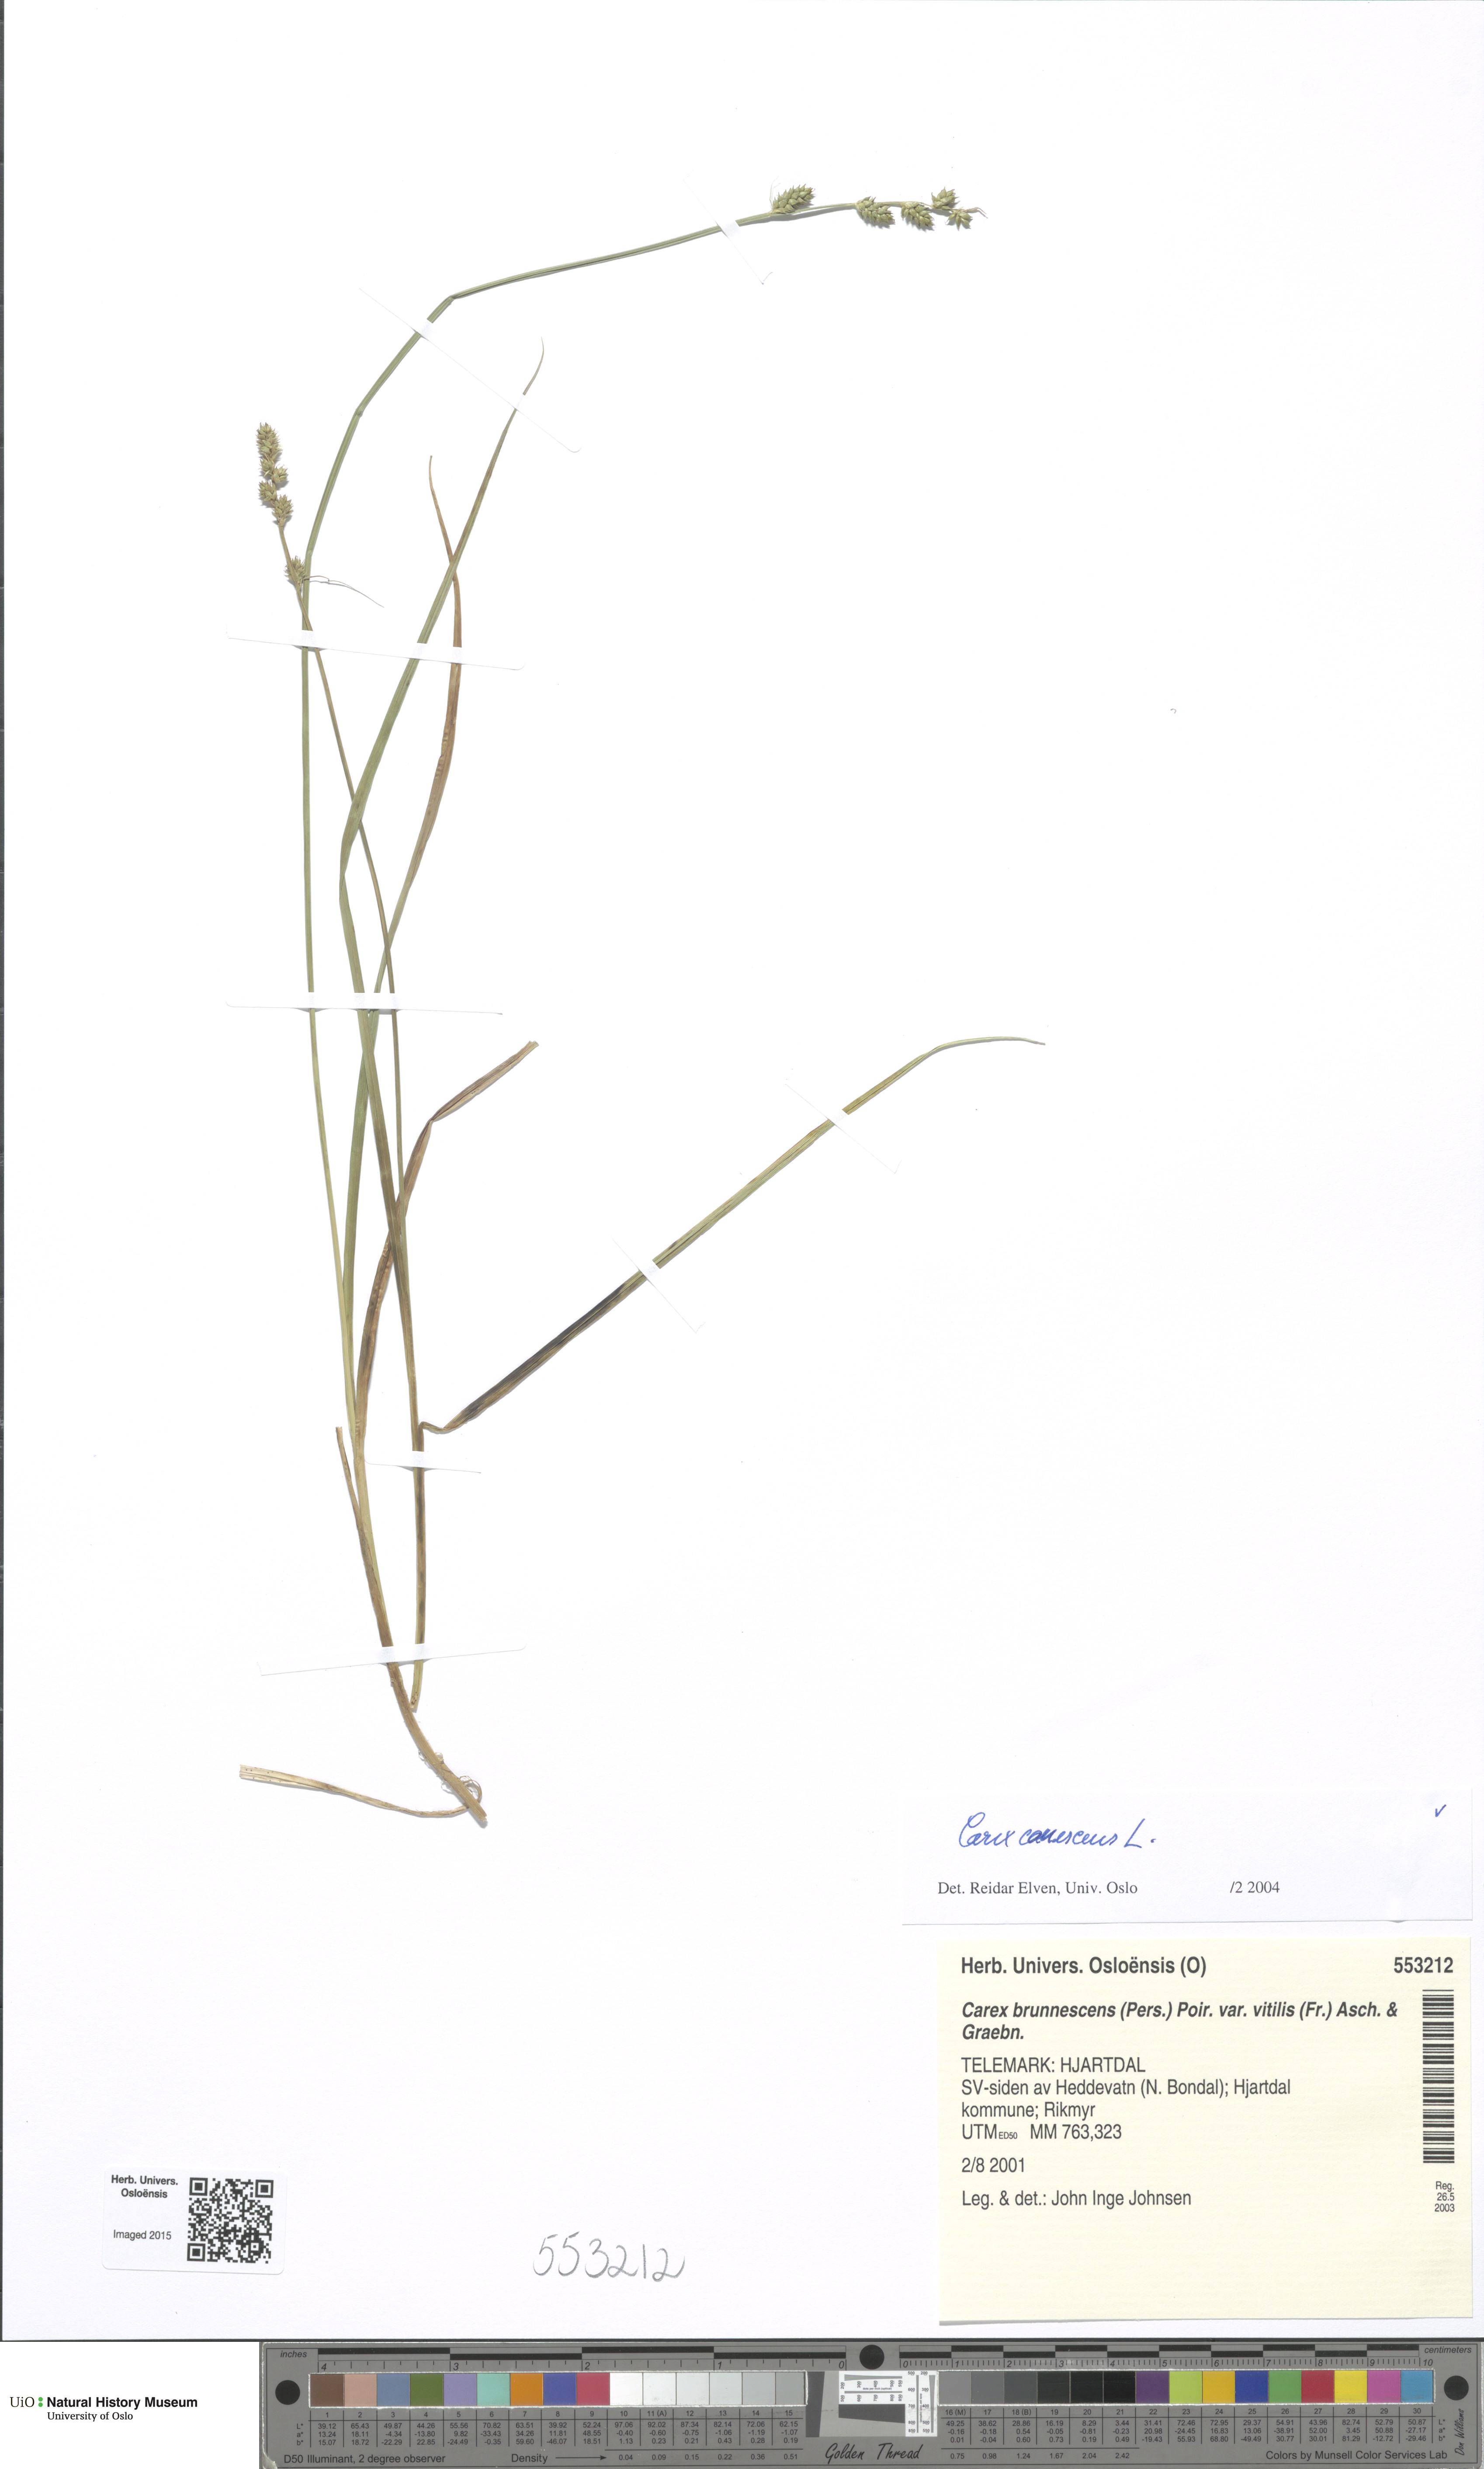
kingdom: Plantae
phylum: Tracheophyta
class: Liliopsida
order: Poales
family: Cyperaceae
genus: Carex
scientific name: Carex canescens
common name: White sedge
